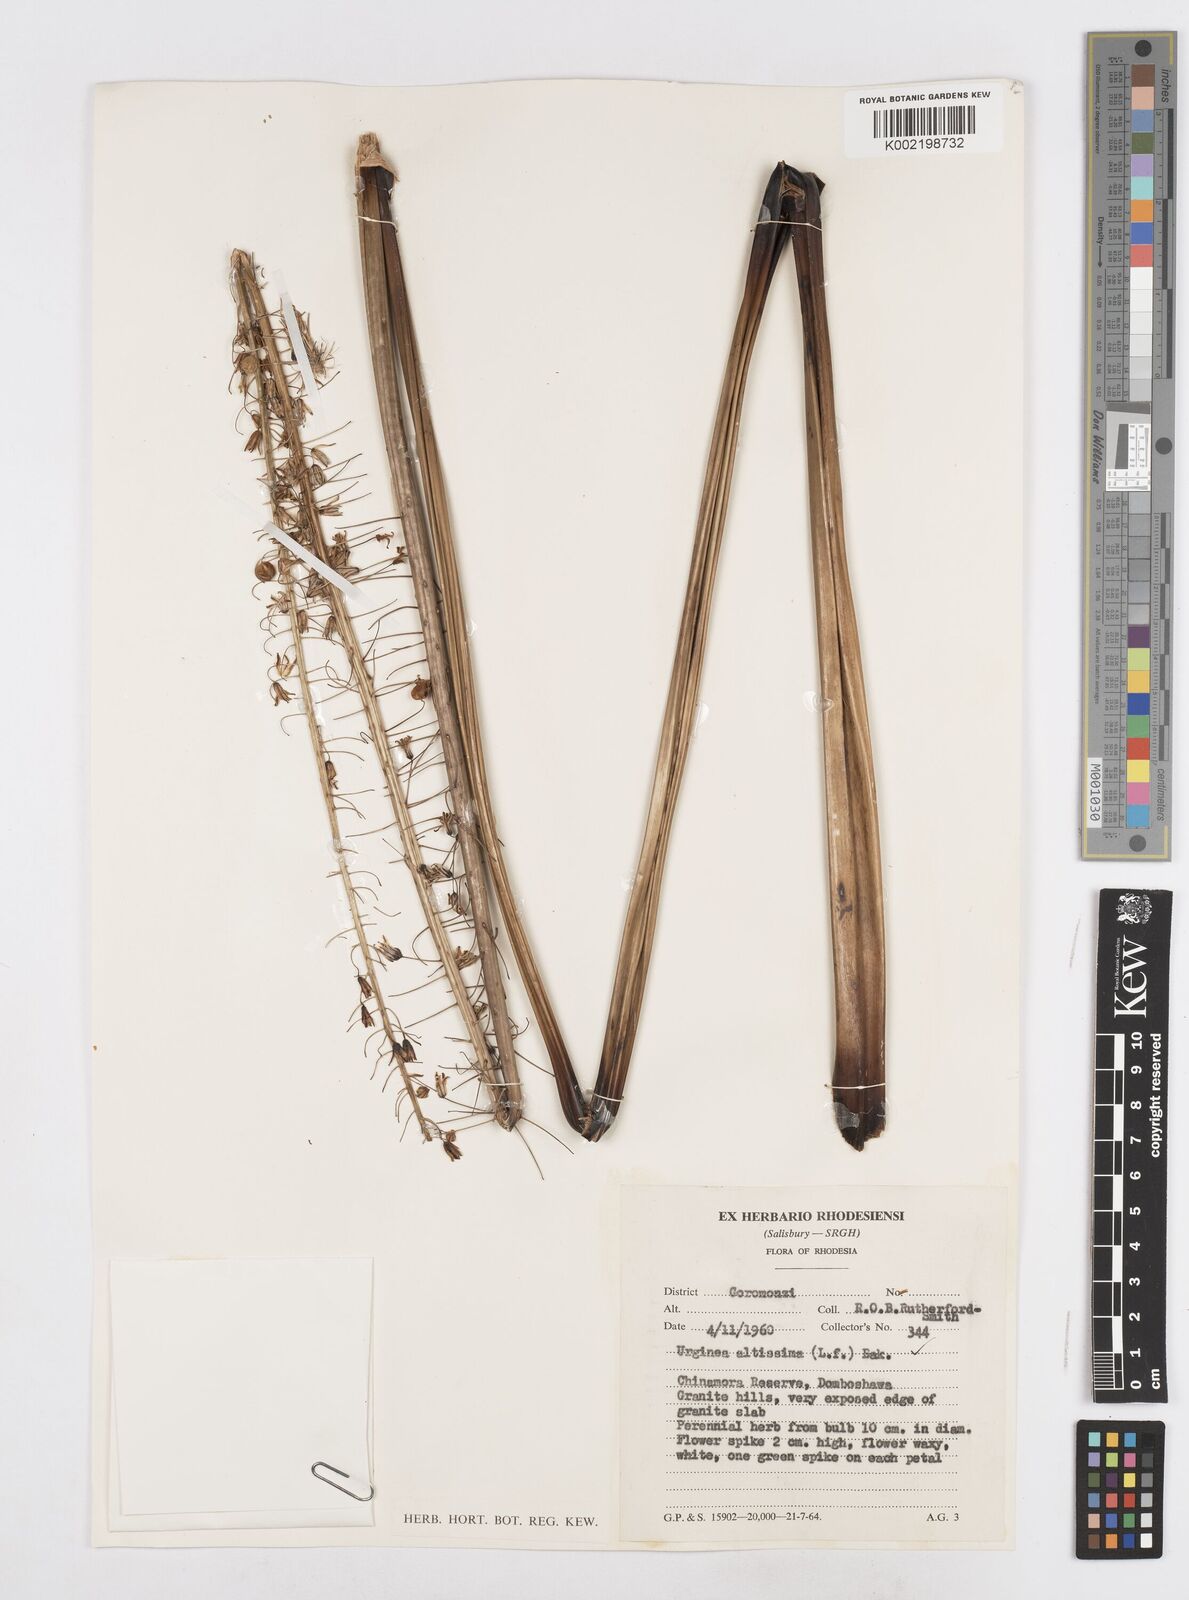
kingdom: Plantae
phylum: Tracheophyta
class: Liliopsida
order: Asparagales
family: Asparagaceae
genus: Drimia
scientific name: Drimia
